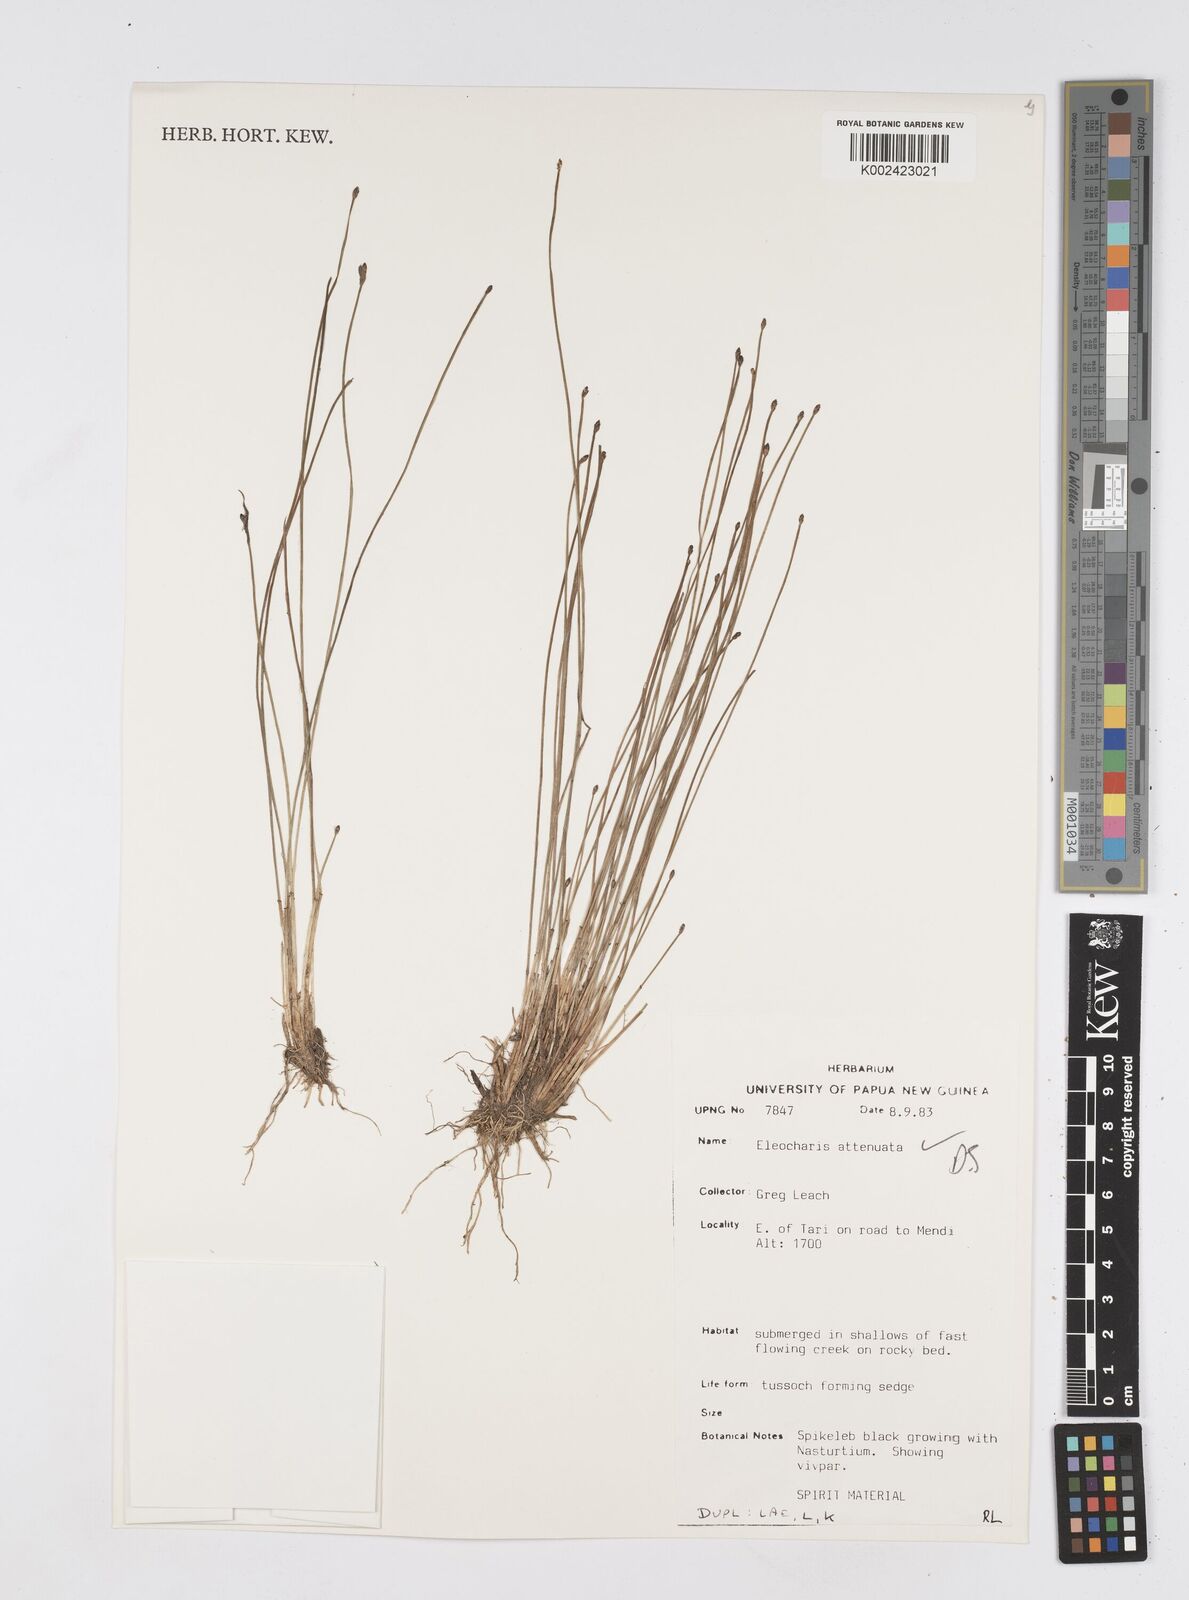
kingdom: Plantae
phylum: Tracheophyta
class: Liliopsida
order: Poales
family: Cyperaceae
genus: Eleocharis
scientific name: Eleocharis attenuata
